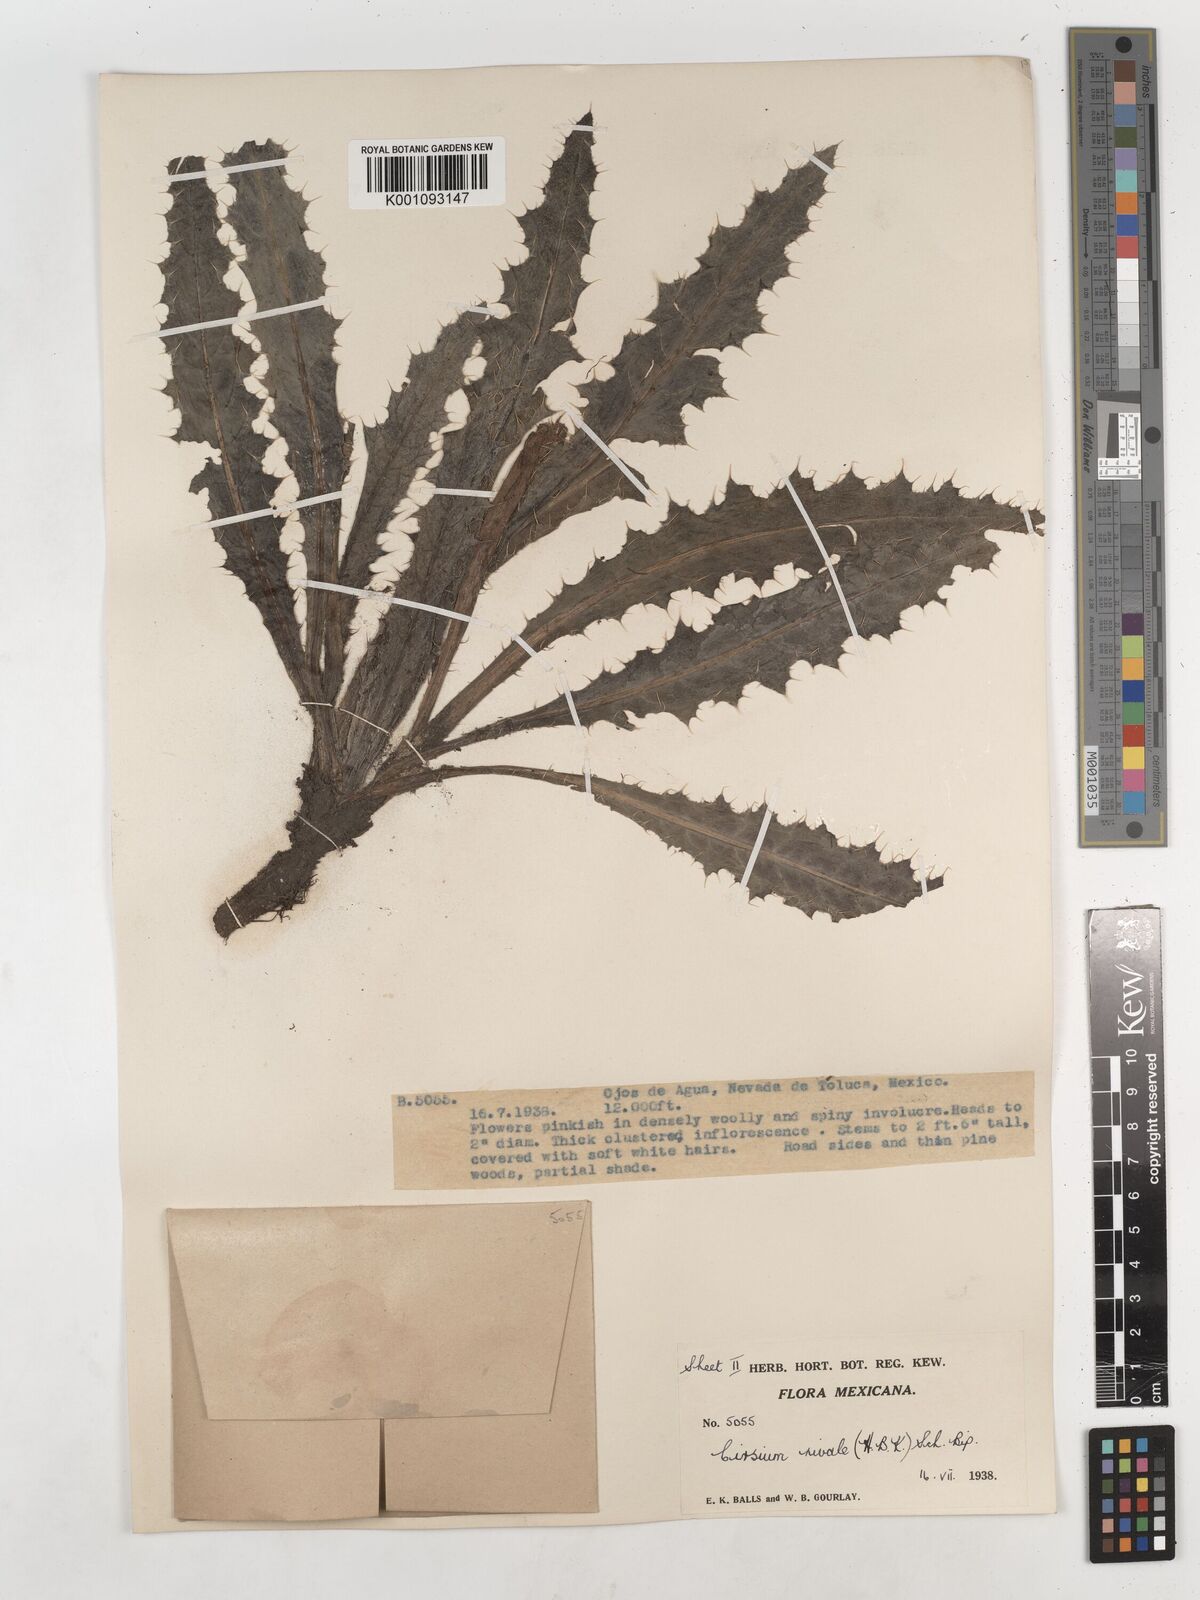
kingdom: Plantae
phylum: Tracheophyta
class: Magnoliopsida
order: Asterales
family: Asteraceae
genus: Cirsium
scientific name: Cirsium nivale
